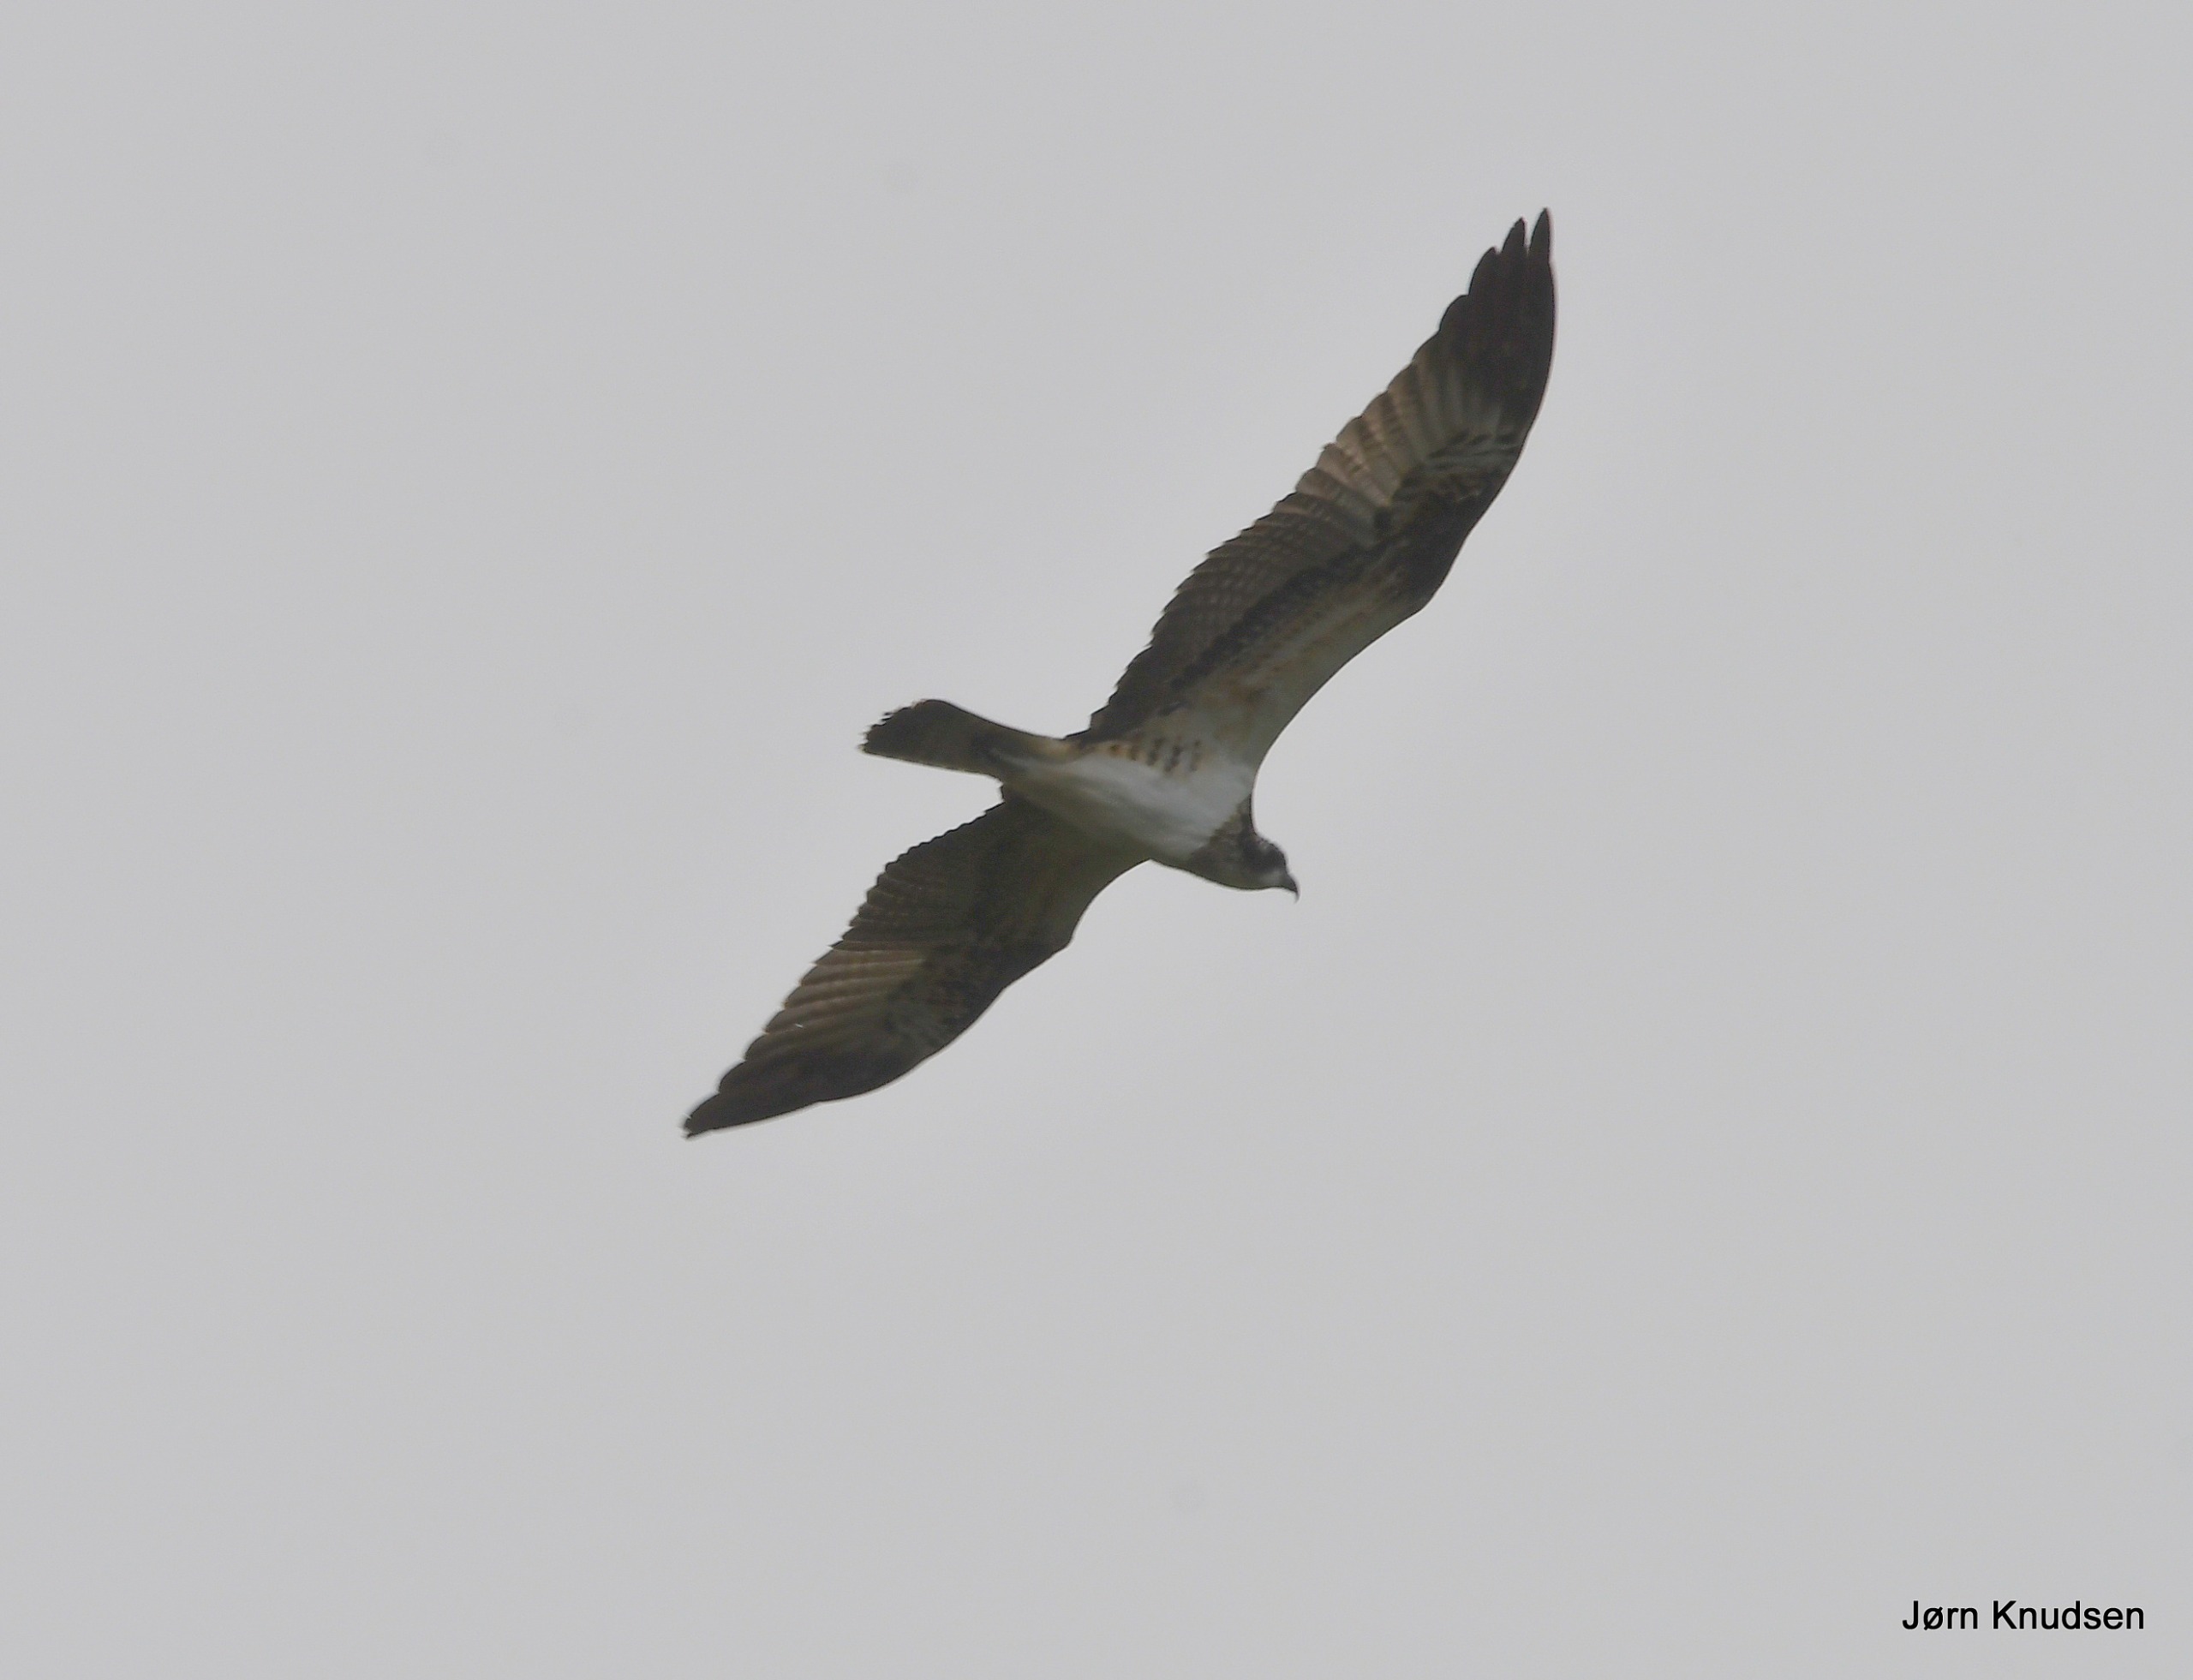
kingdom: Animalia
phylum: Chordata
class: Aves
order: Accipitriformes
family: Pandionidae
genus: Pandion
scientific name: Pandion haliaetus
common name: Fiskeørn
